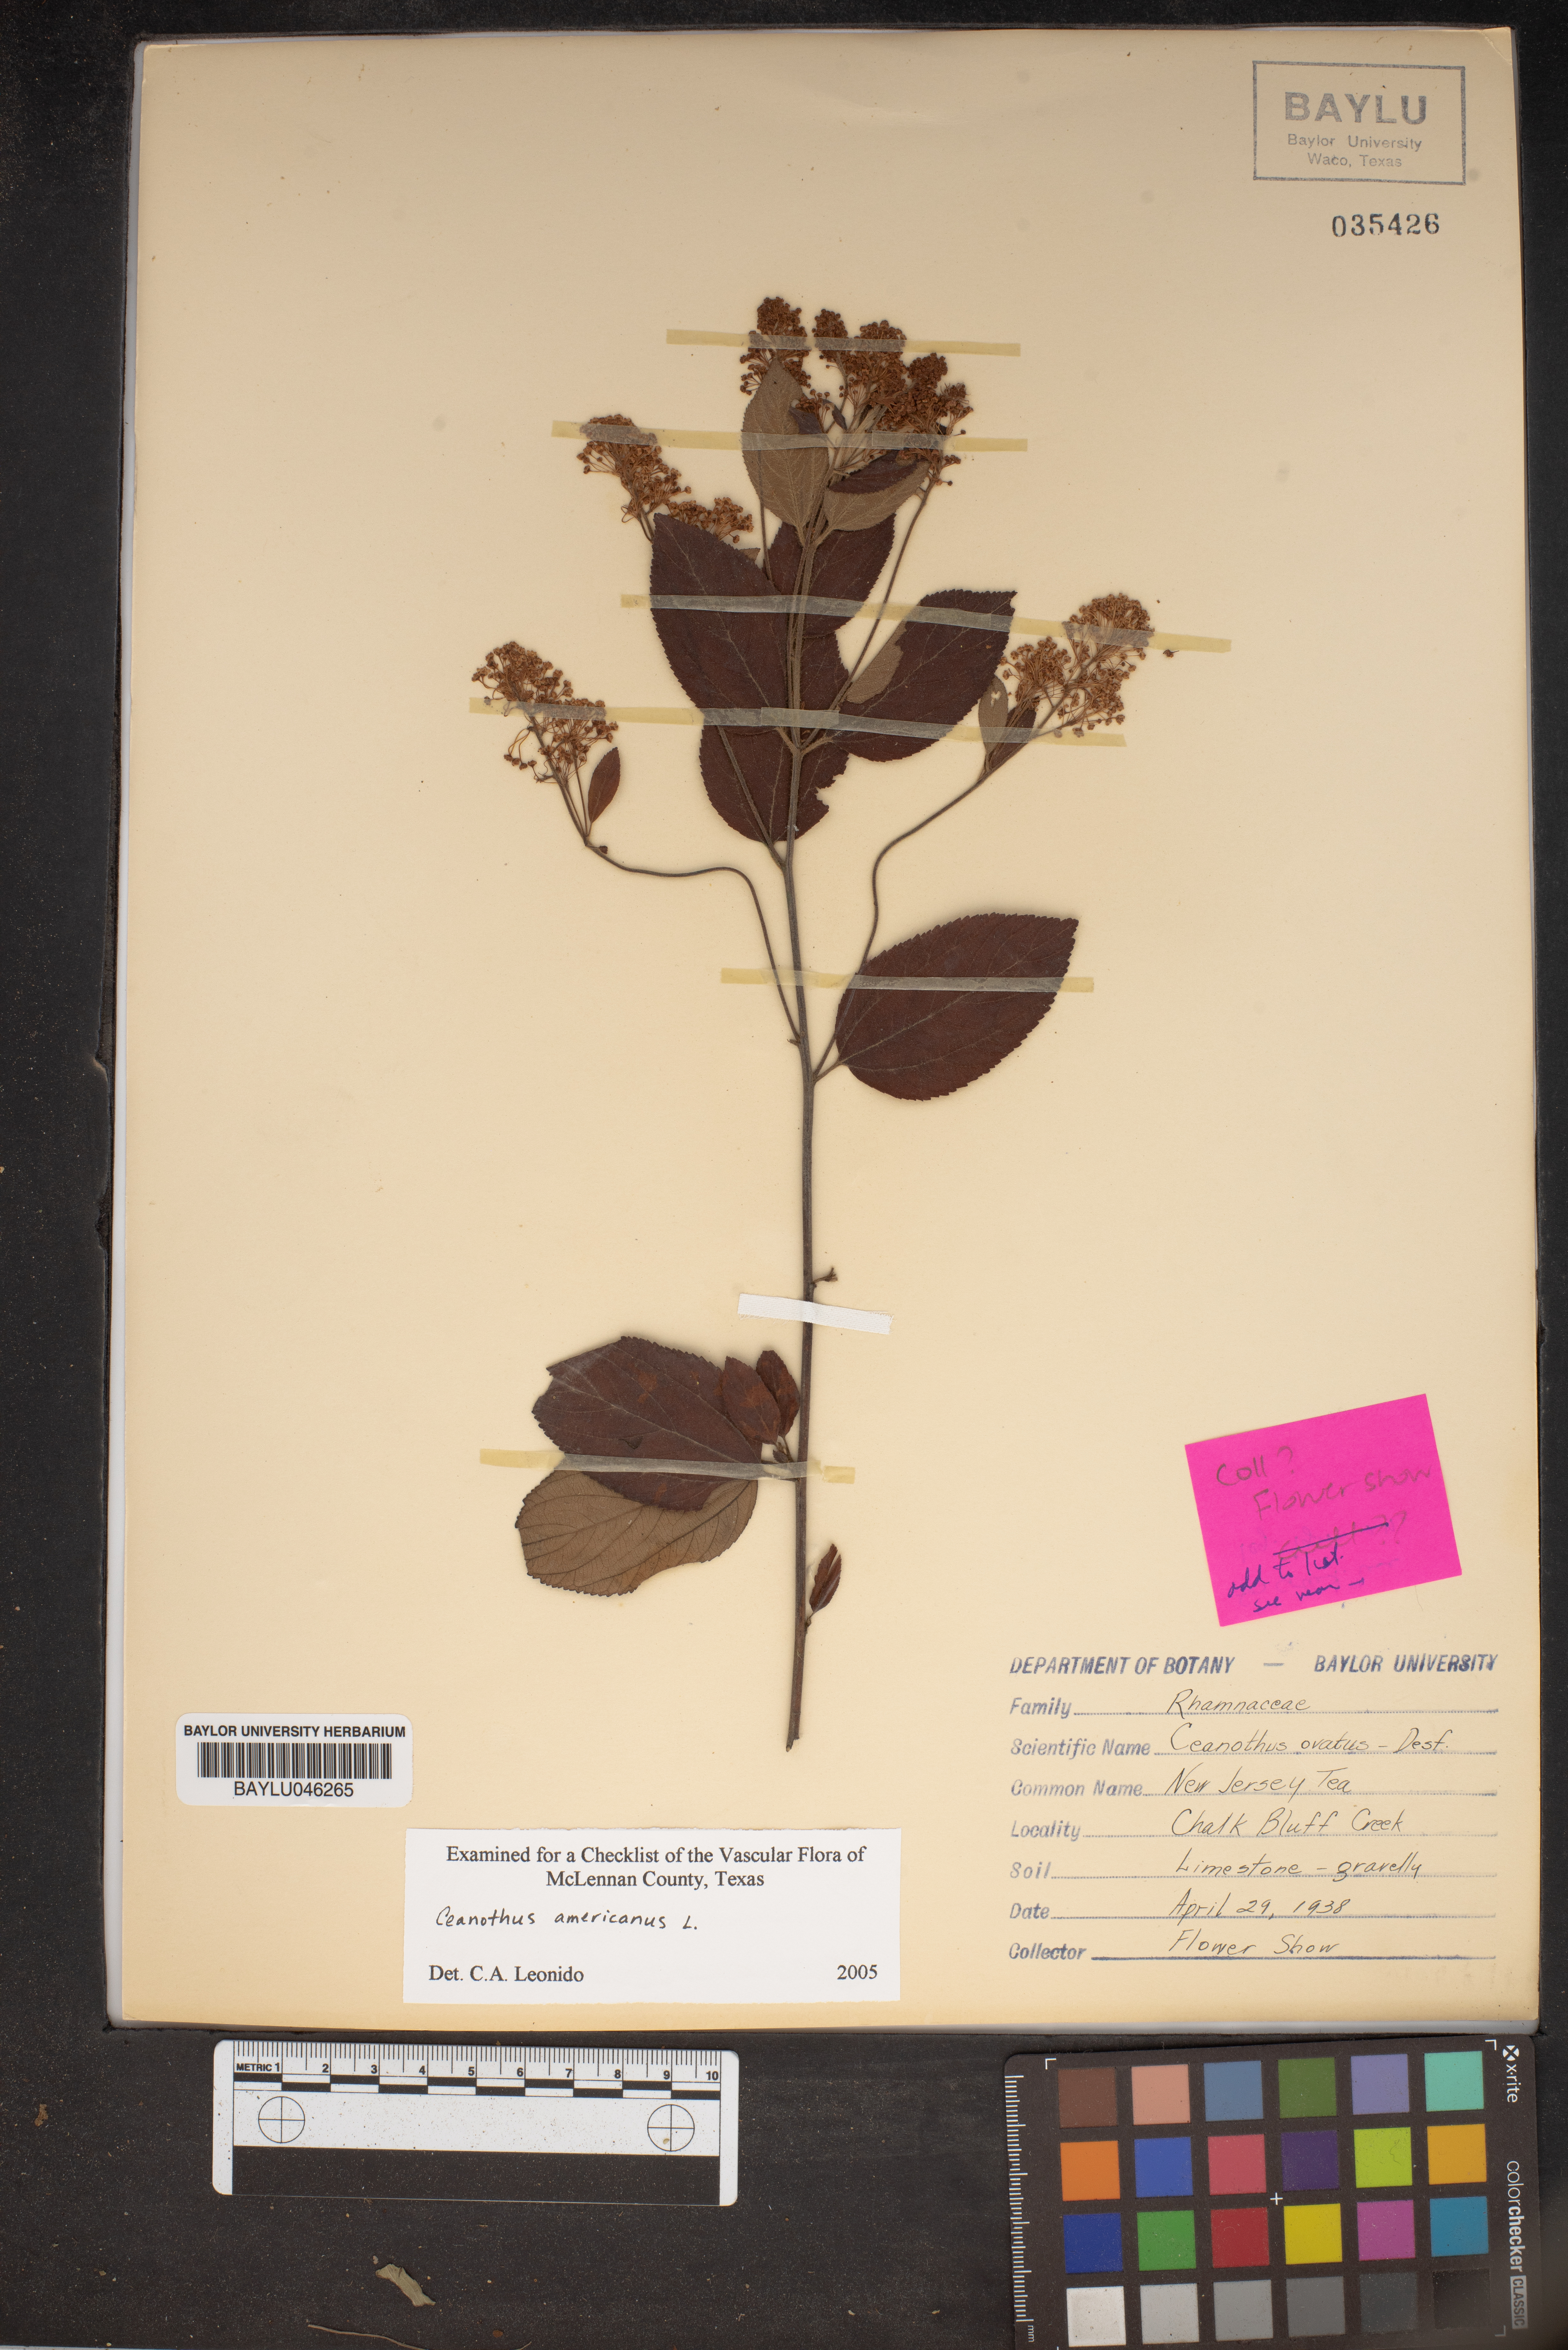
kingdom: Plantae
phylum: Tracheophyta
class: Magnoliopsida
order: Rosales
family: Rhamnaceae
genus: Ceanothus
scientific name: Ceanothus herbaceus
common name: Inland ceanothus
